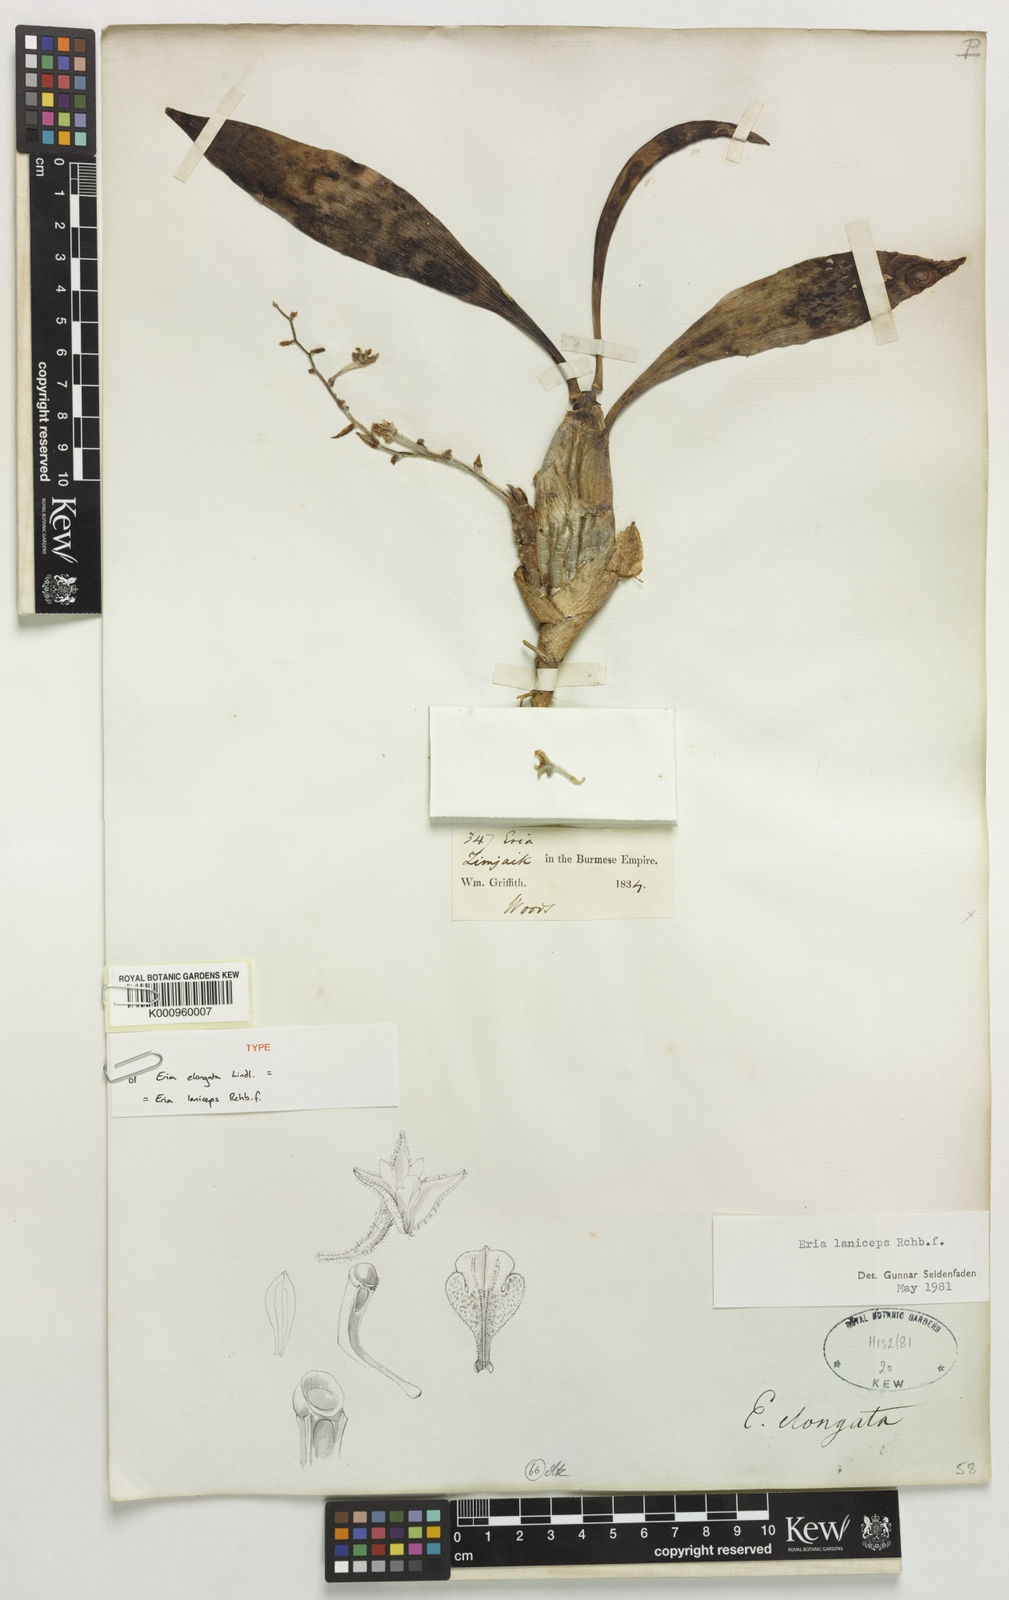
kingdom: Plantae
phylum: Tracheophyta
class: Liliopsida
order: Asparagales
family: Orchidaceae
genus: Dendrolirium
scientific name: Dendrolirium laniceps
